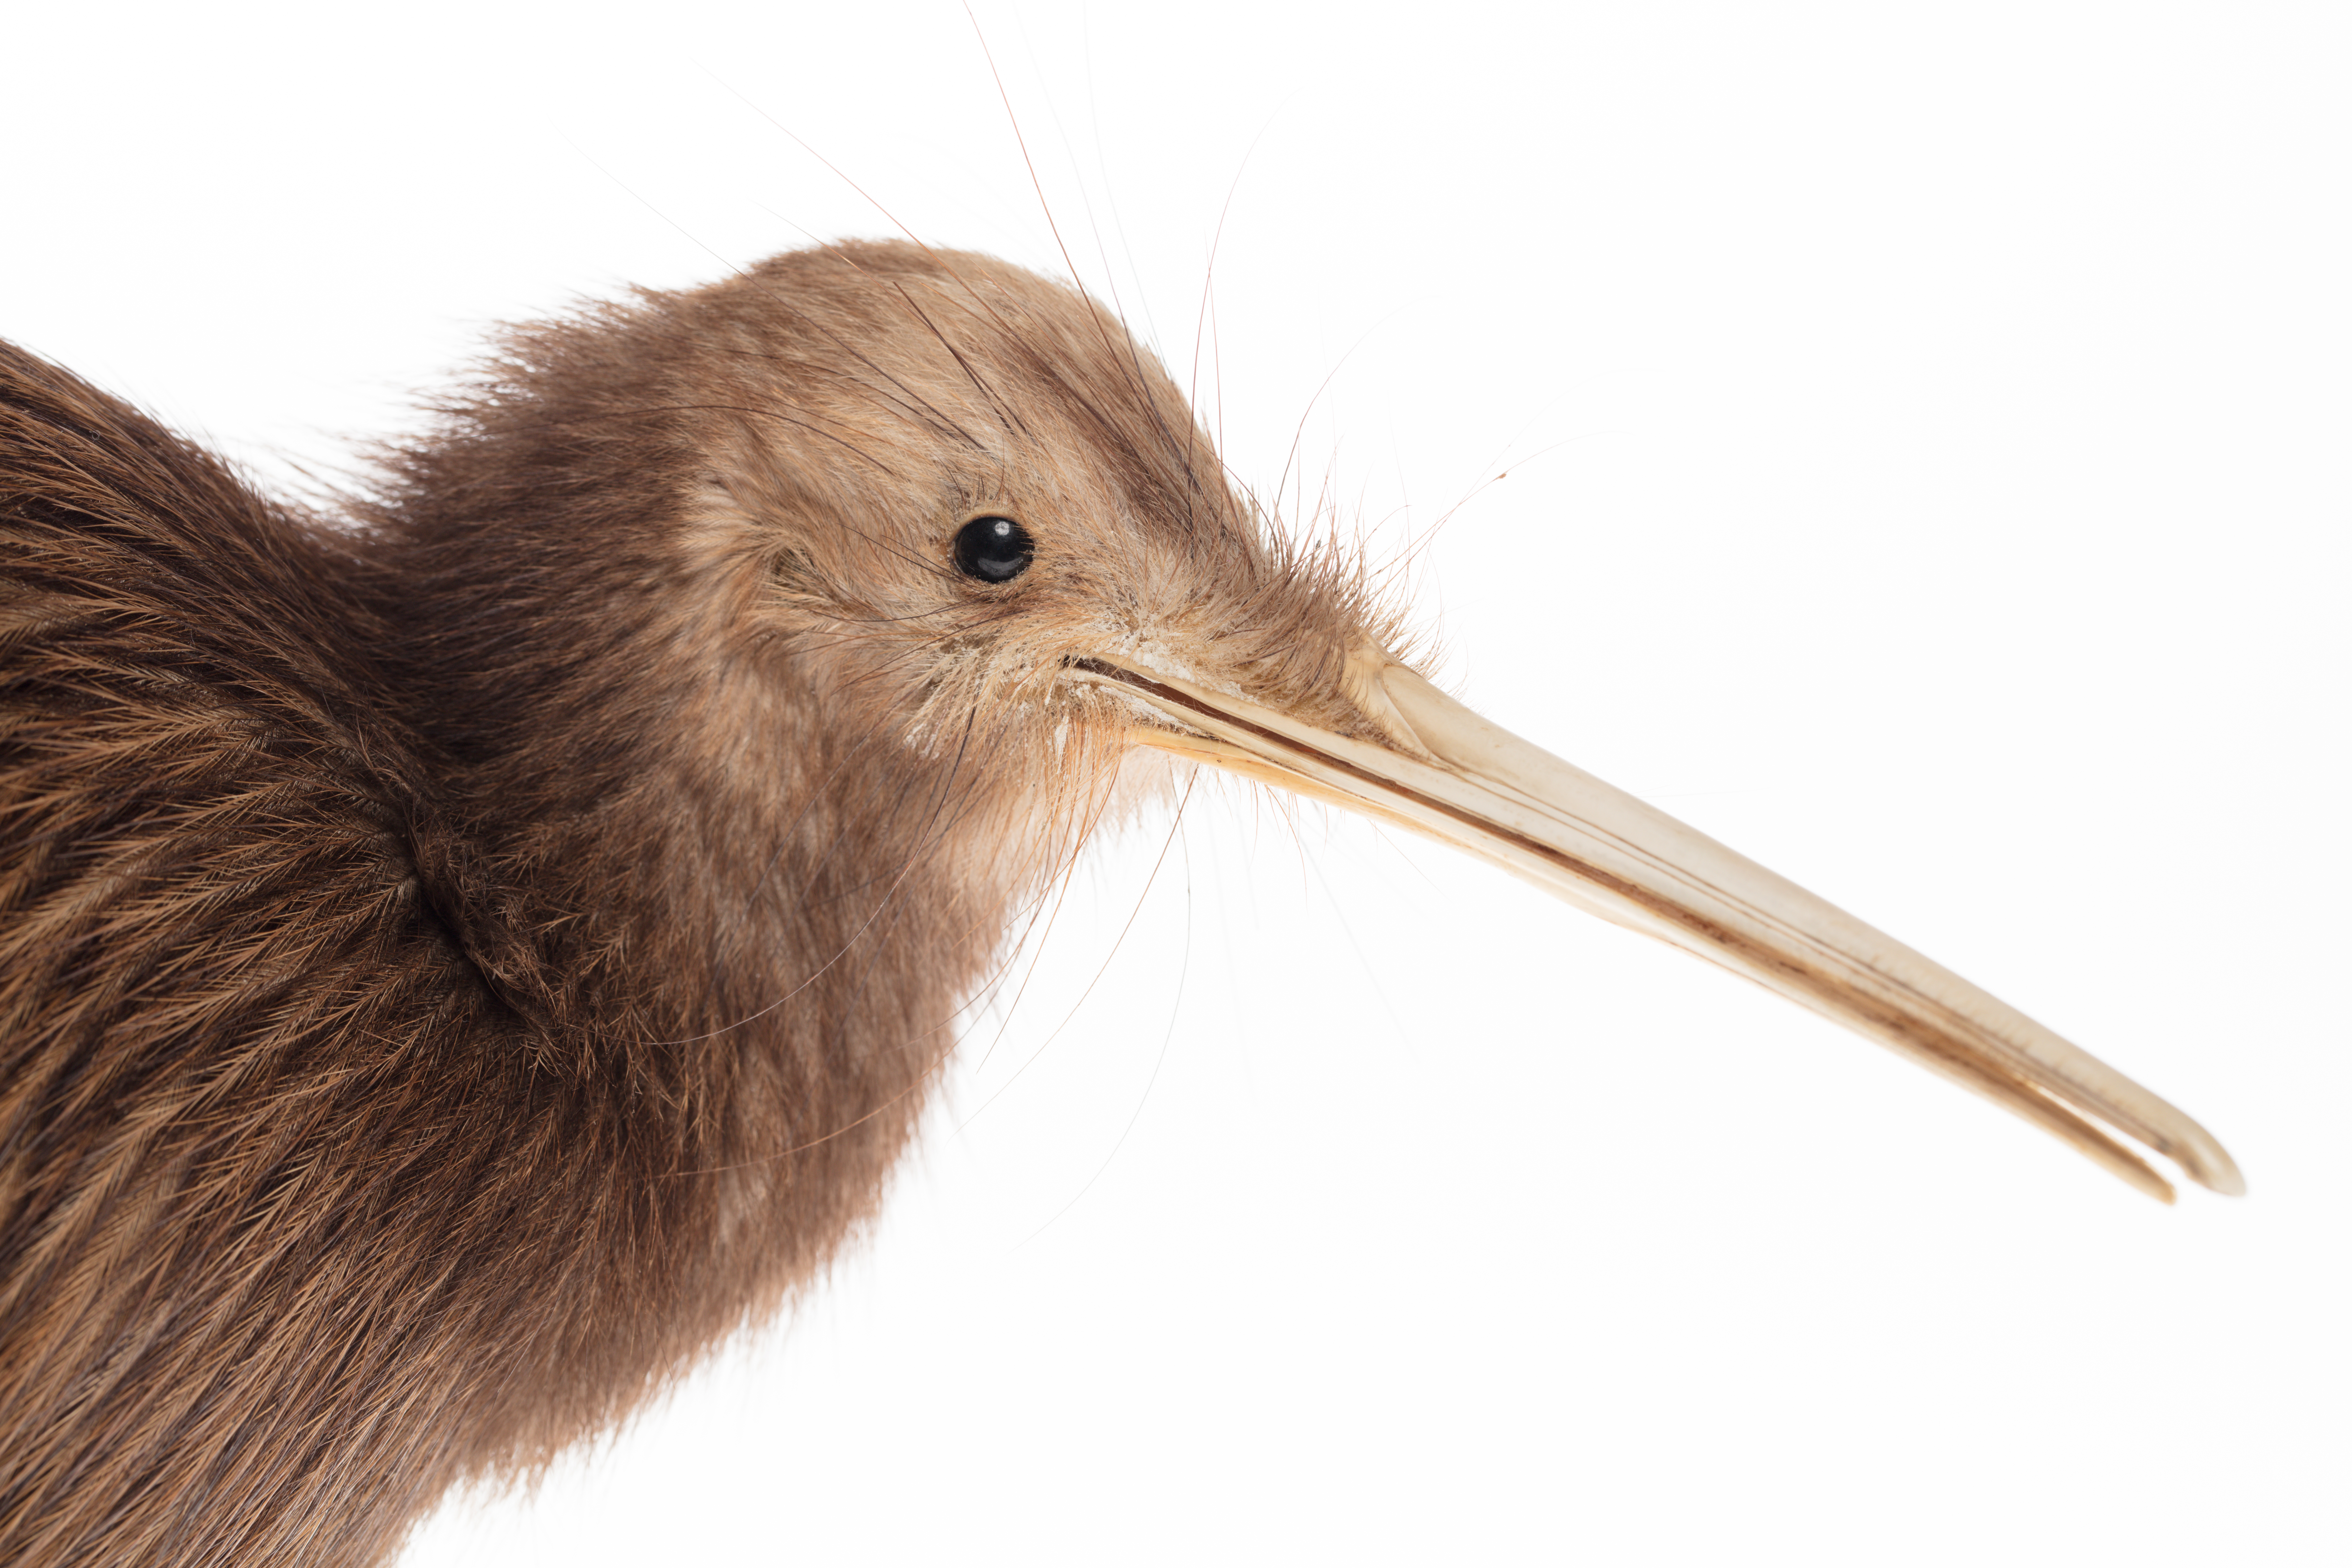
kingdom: Animalia
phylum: Chordata
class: Aves
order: Apterygiformes
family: Apterygidae
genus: Apteryx
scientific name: Apteryx mantelli
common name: North island brown kiwi
